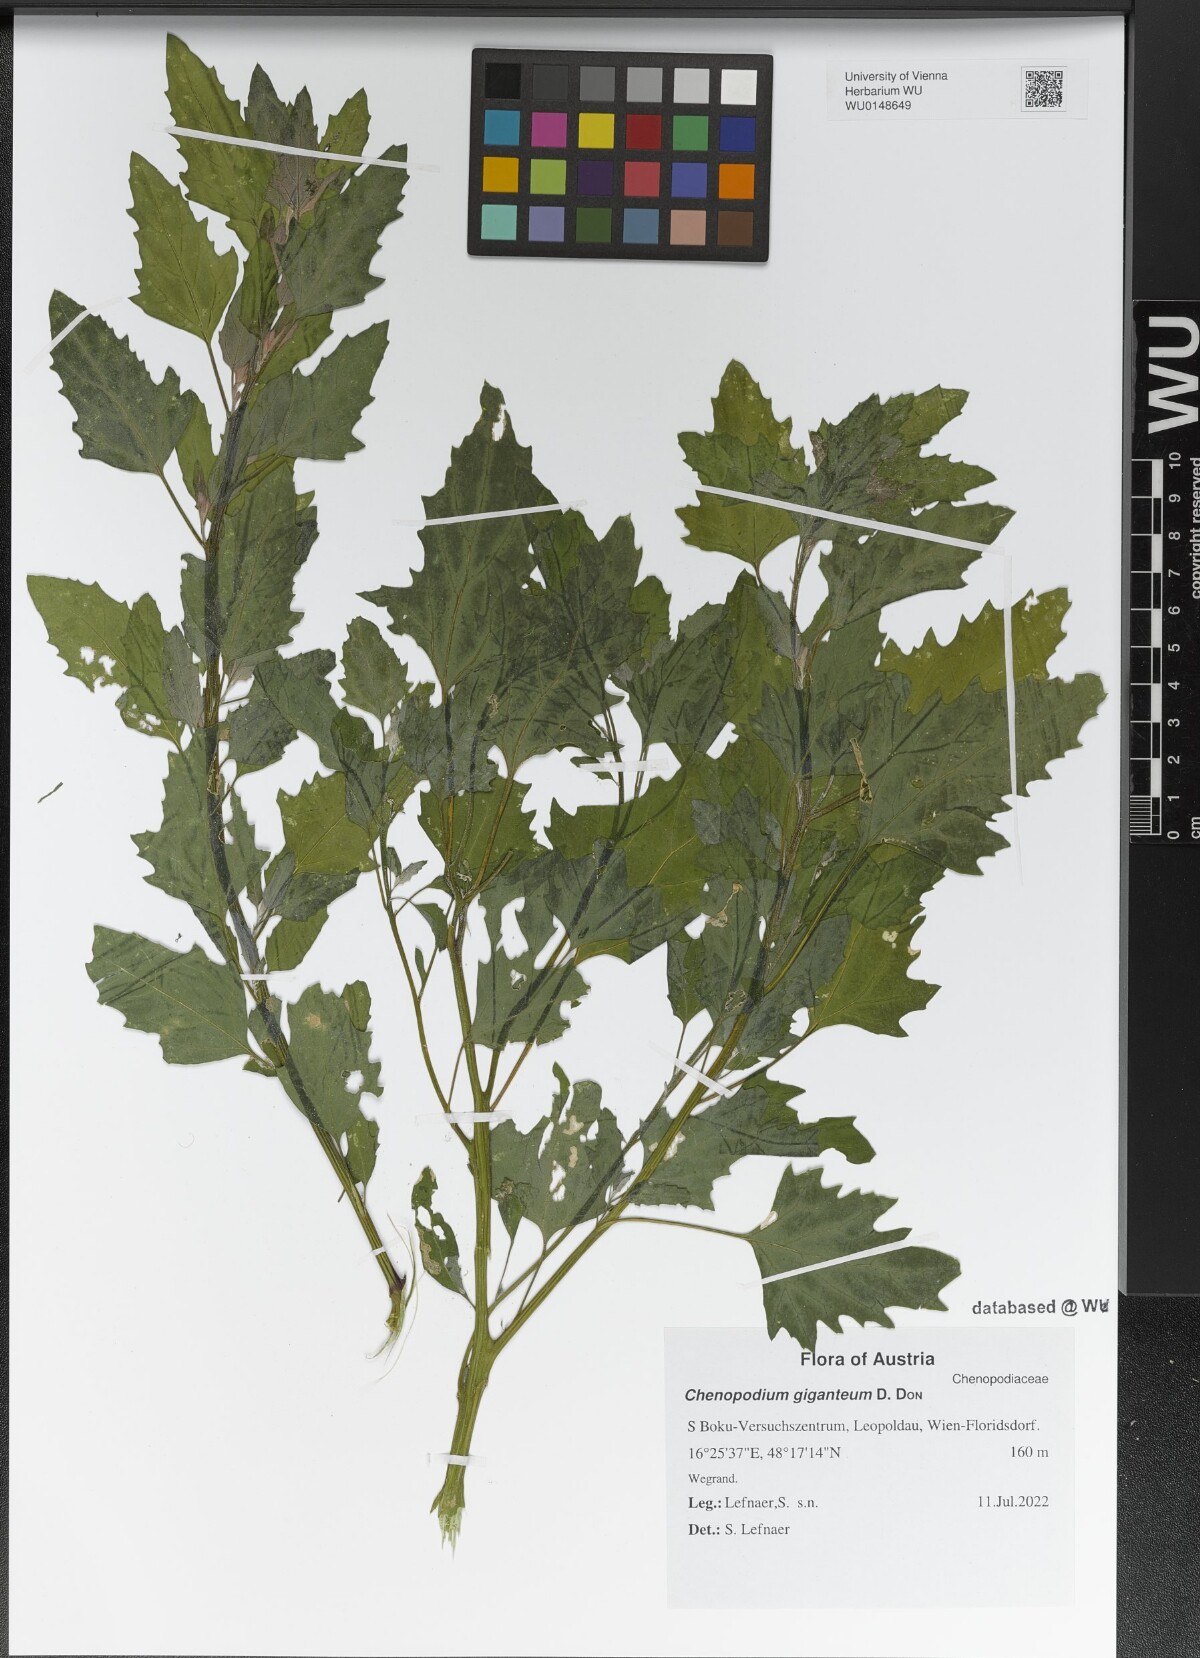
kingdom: Plantae
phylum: Tracheophyta
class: Magnoliopsida
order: Caryophyllales
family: Amaranthaceae
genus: Chenopodium
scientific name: Chenopodium giganteum
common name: Magentaspreen
